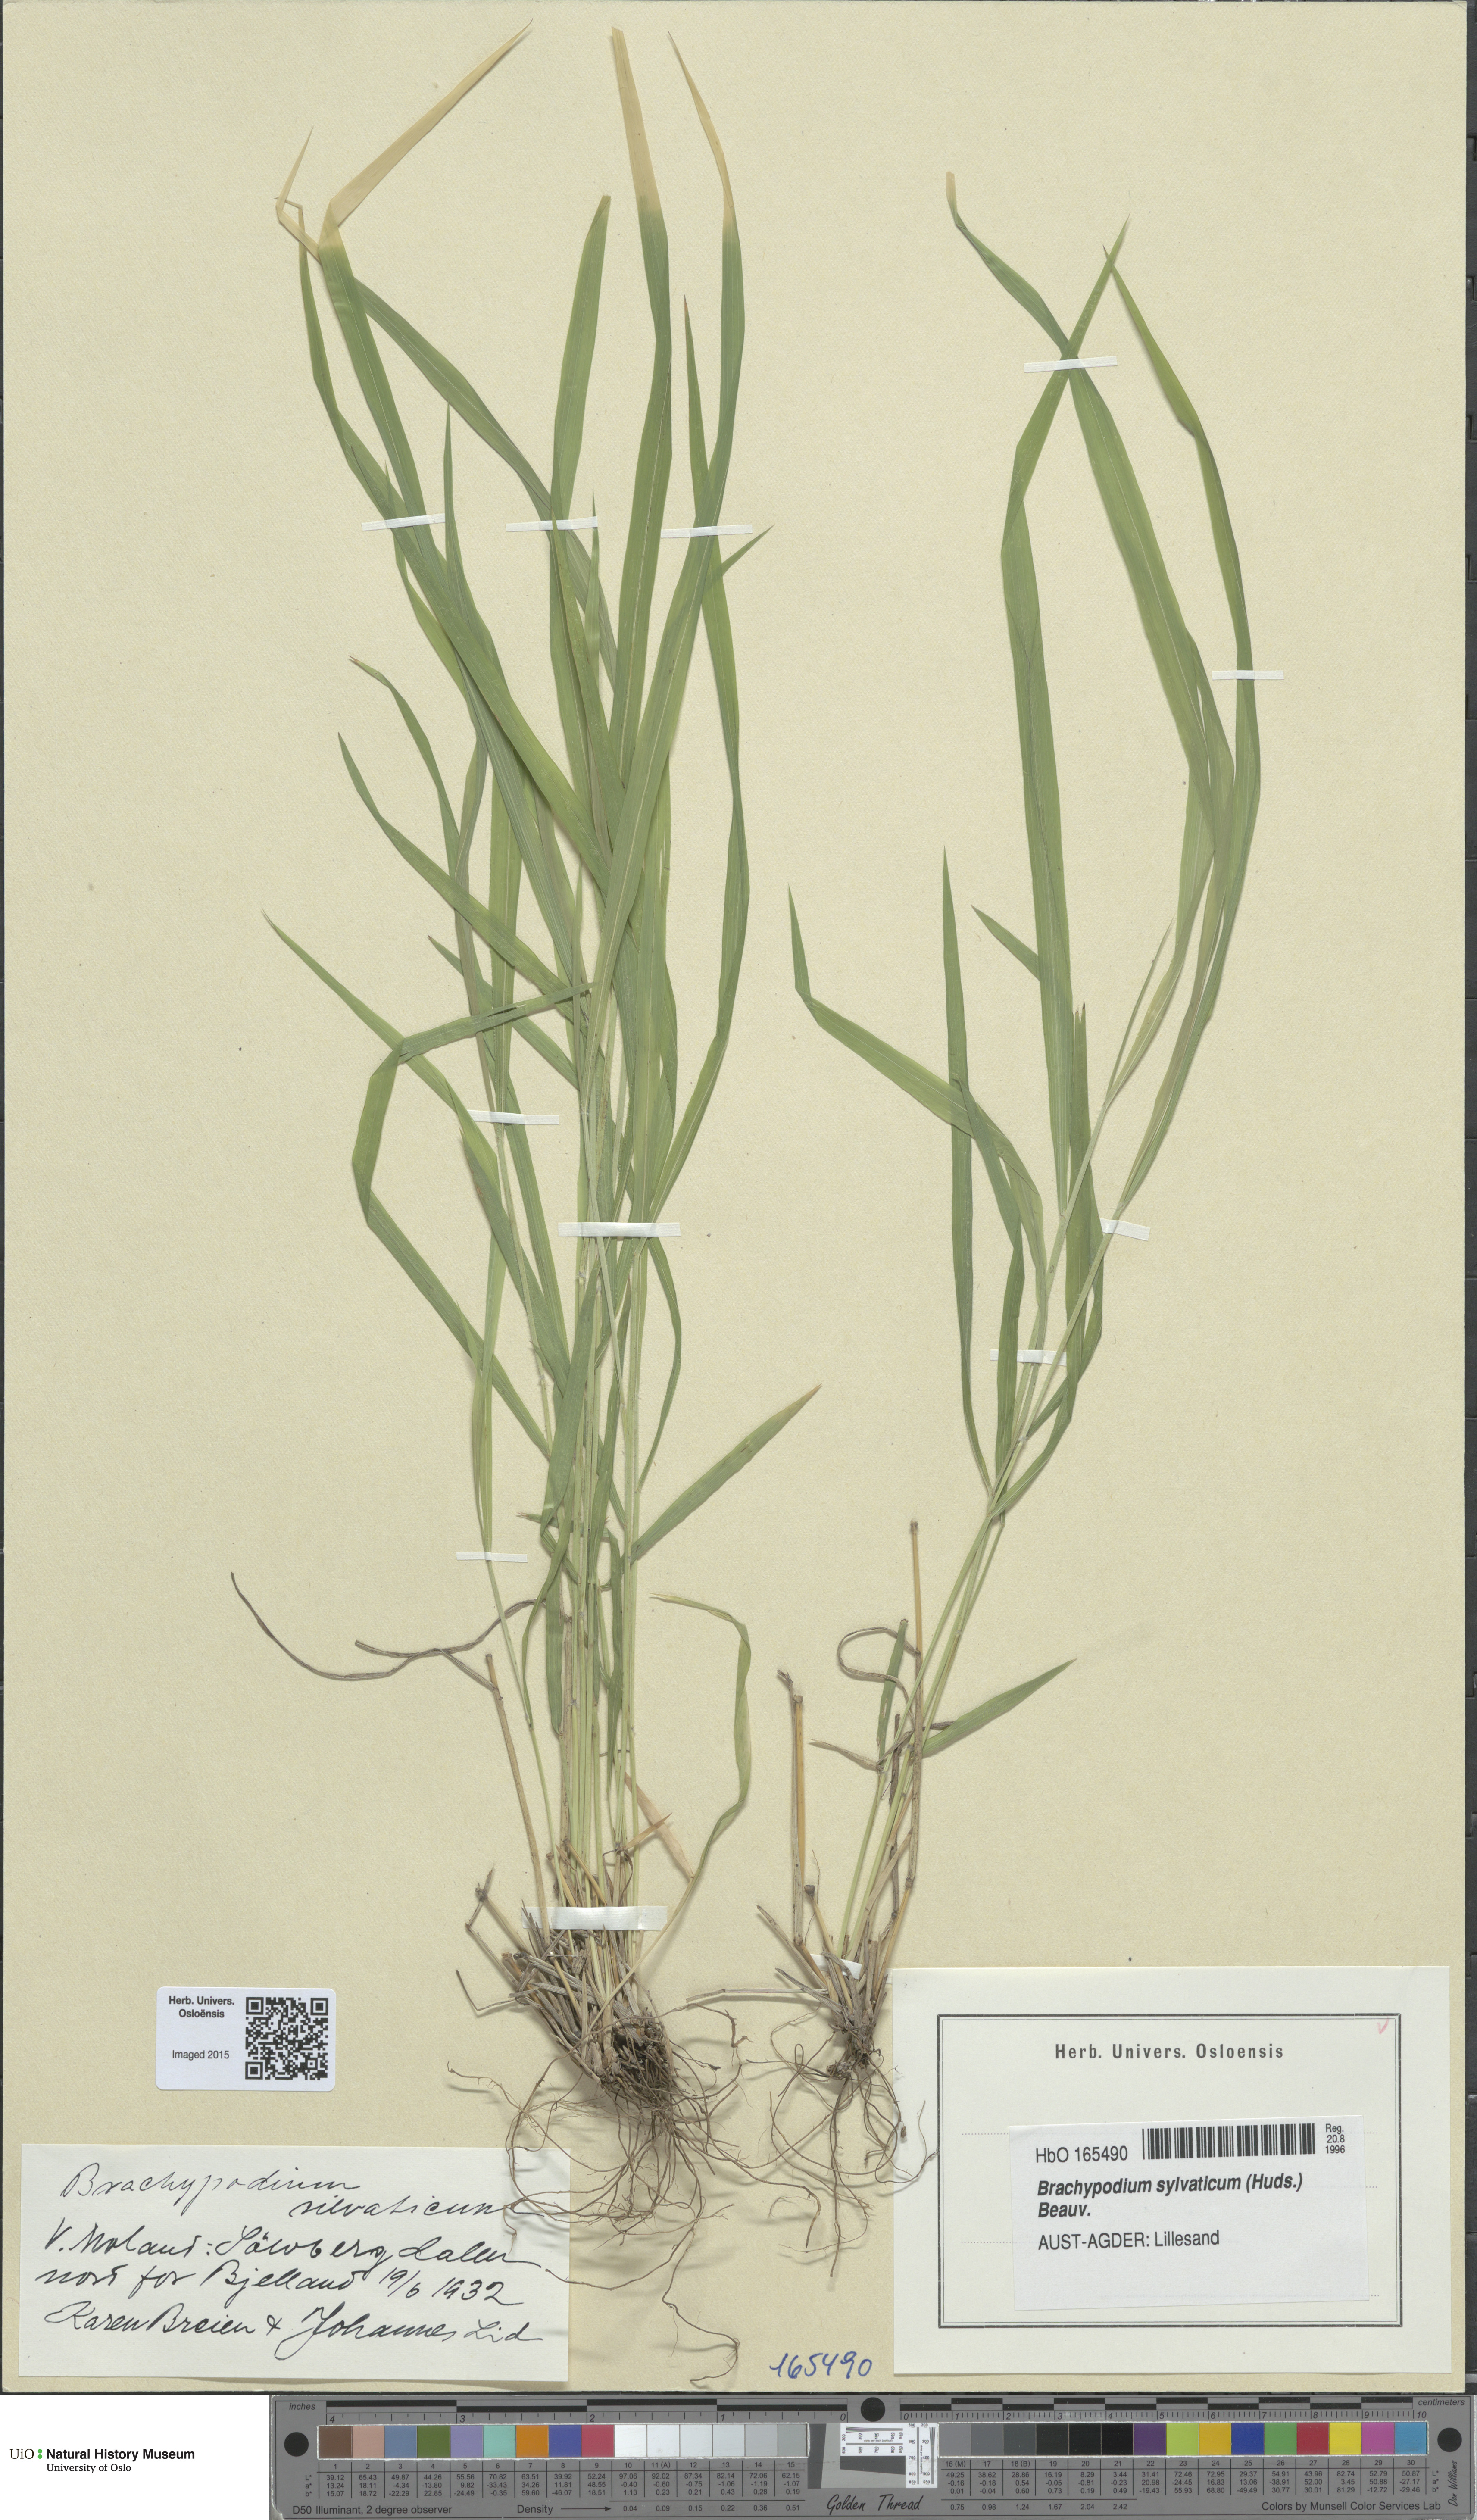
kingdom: Plantae
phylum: Tracheophyta
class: Liliopsida
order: Poales
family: Poaceae
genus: Brachypodium
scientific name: Brachypodium sylvaticum
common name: False-brome
